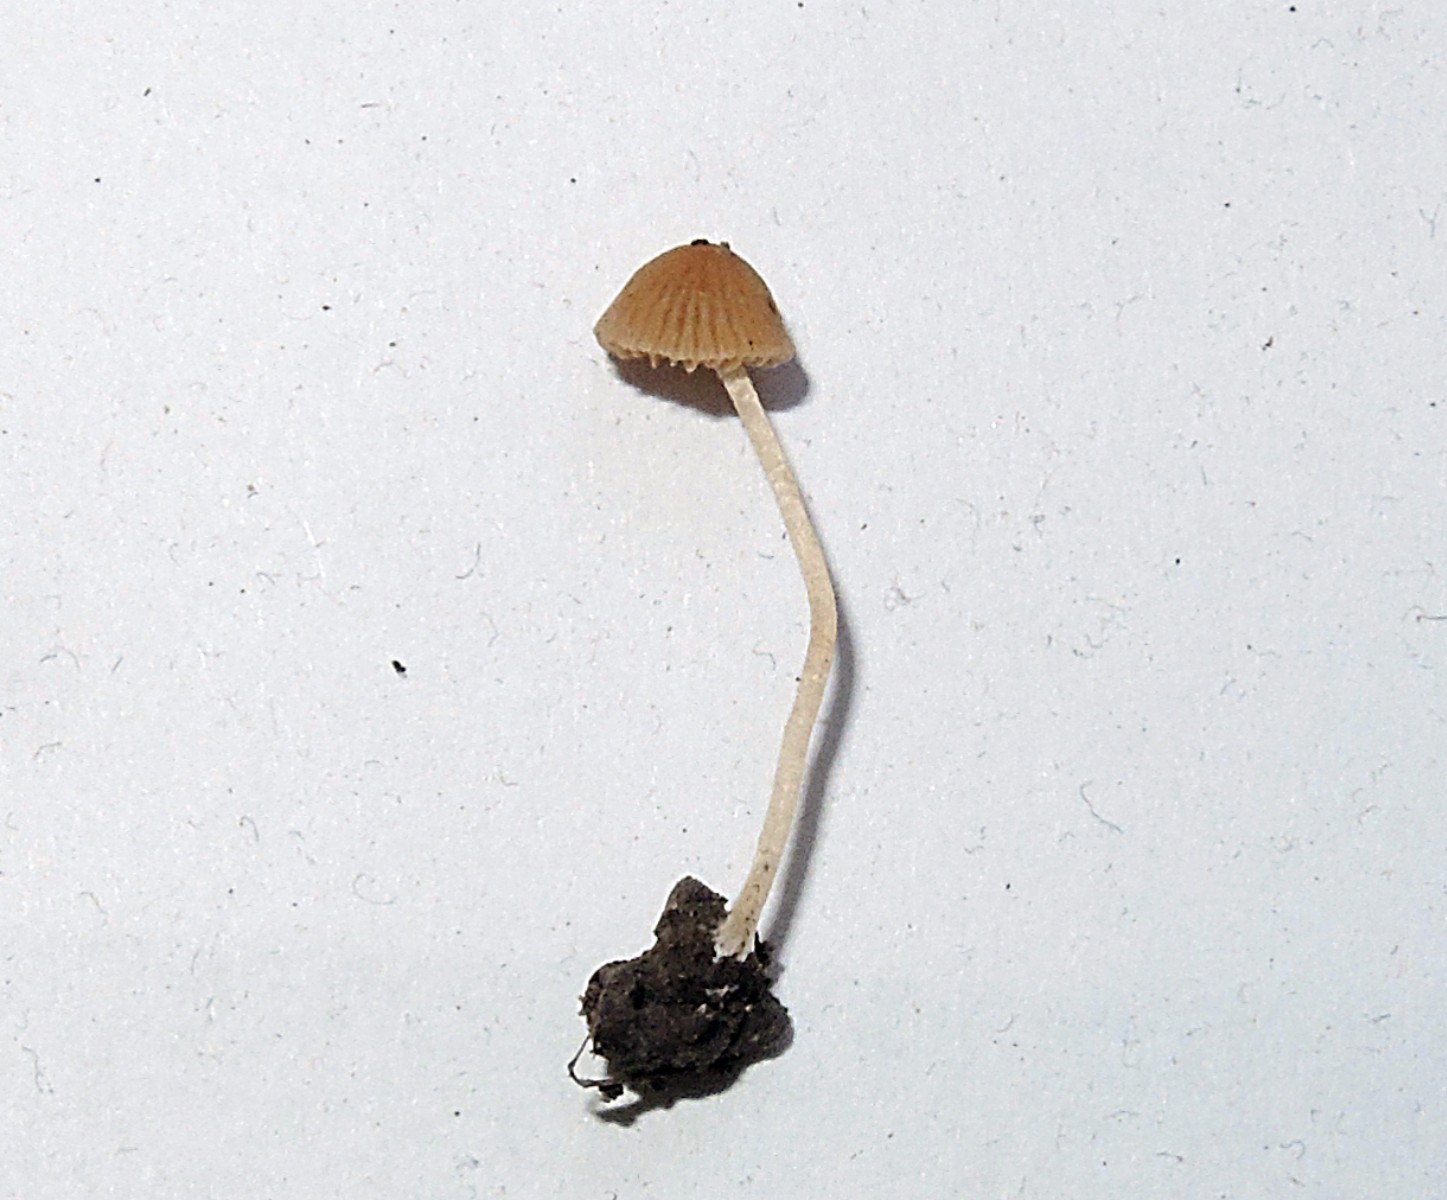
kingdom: Fungi
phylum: Basidiomycota
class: Agaricomycetes
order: Agaricales
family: Bolbitiaceae
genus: Conocybe
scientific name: Conocybe mairei
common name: spinkel dansehat
